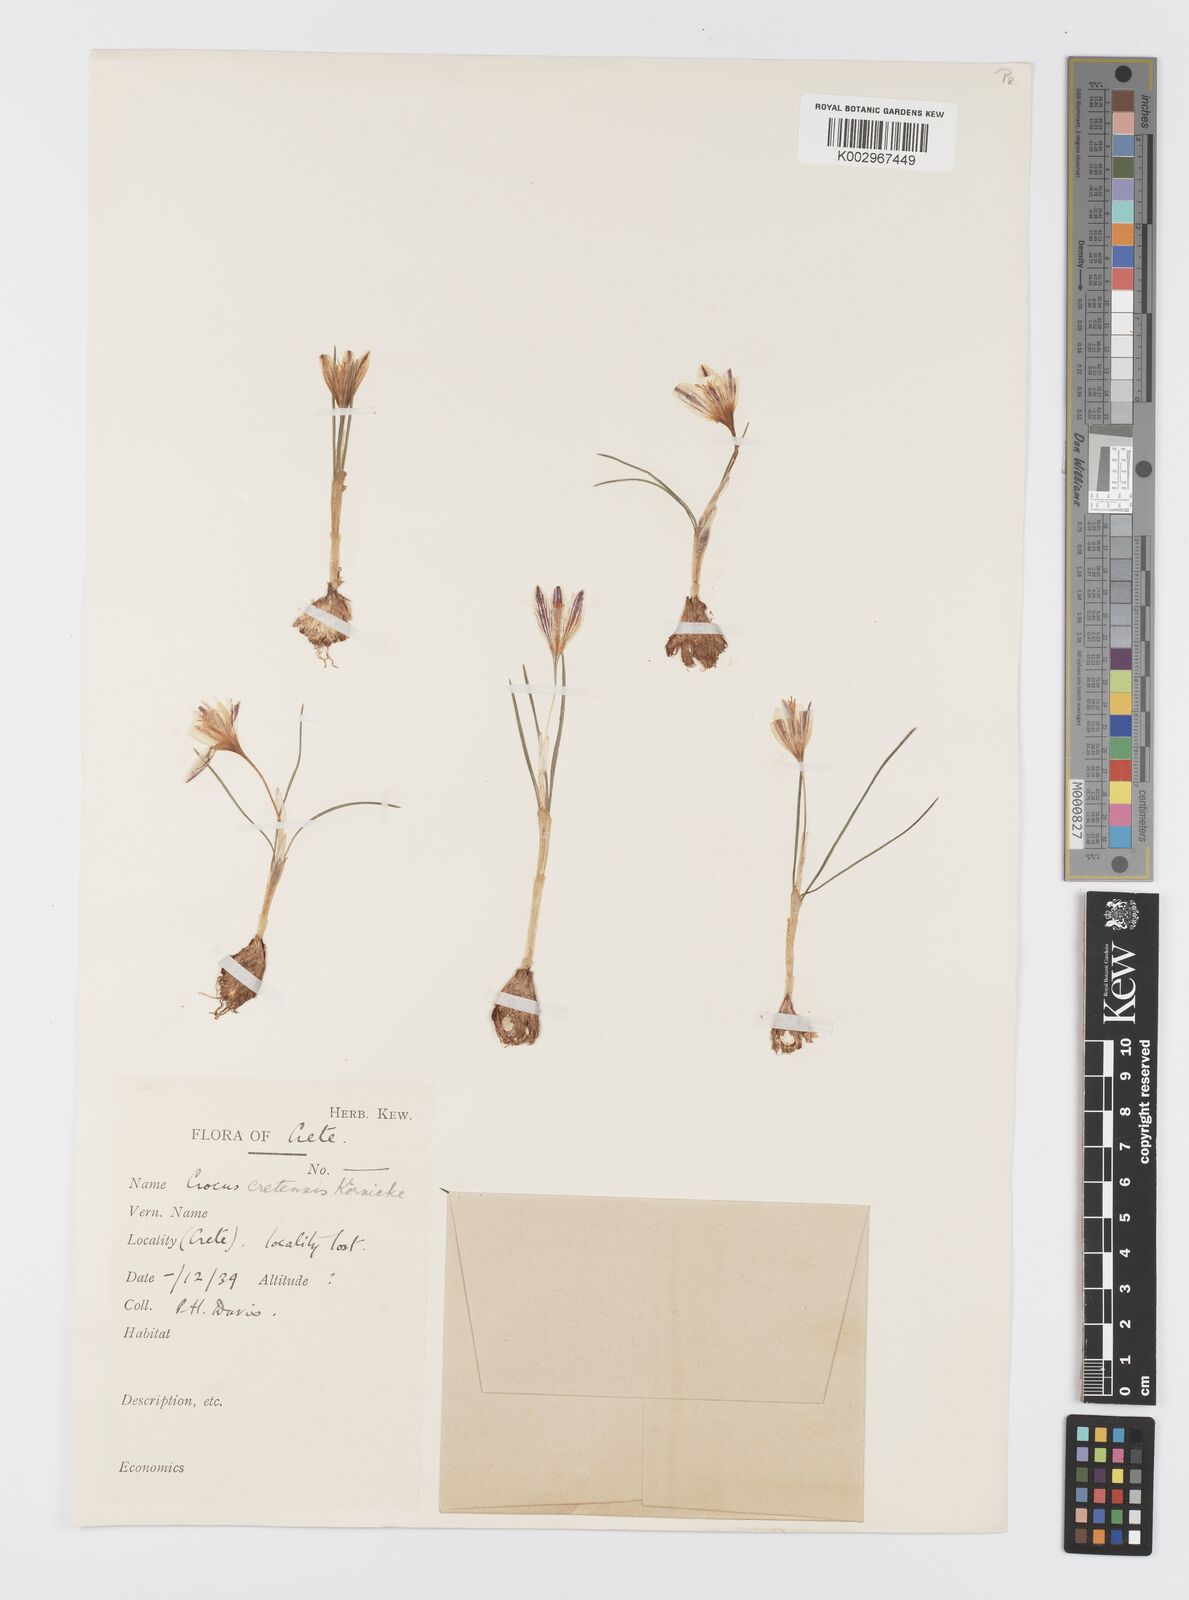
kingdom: Plantae
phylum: Tracheophyta
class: Liliopsida
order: Asparagales
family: Iridaceae
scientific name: Iridaceae
